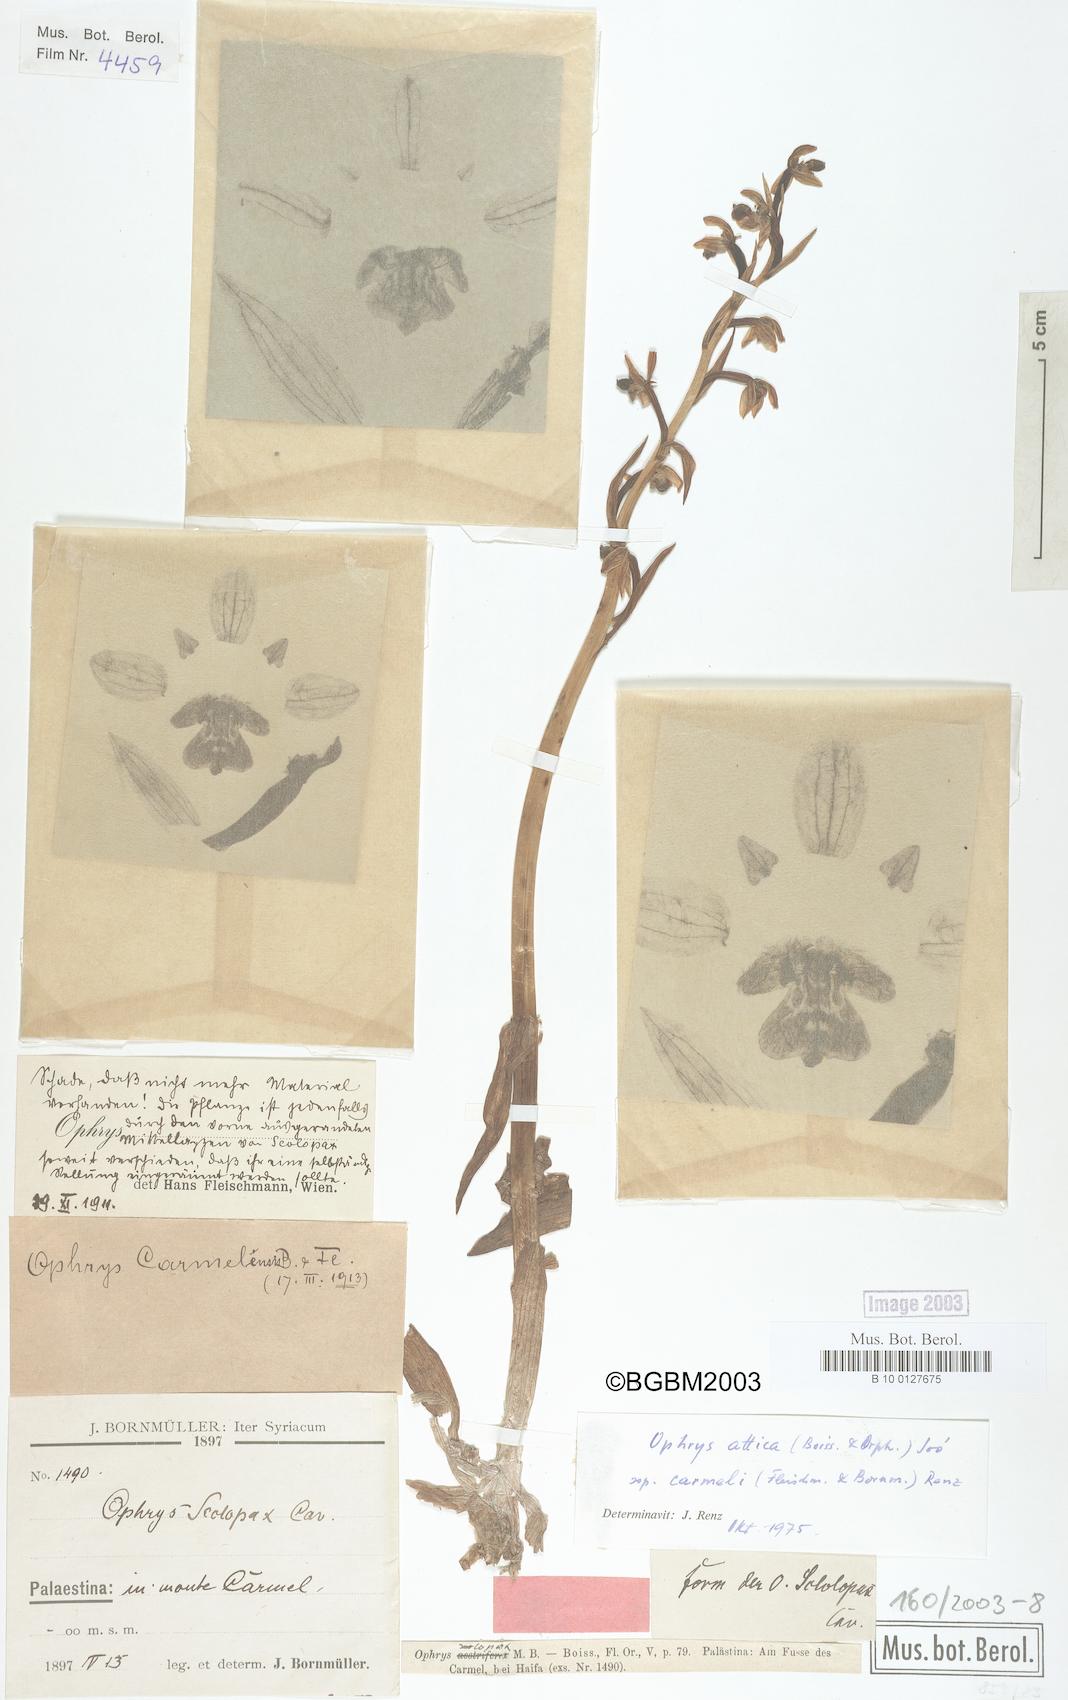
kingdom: Plantae
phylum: Tracheophyta
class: Liliopsida
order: Asparagales
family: Orchidaceae
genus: Ophrys
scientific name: Ophrys attica
